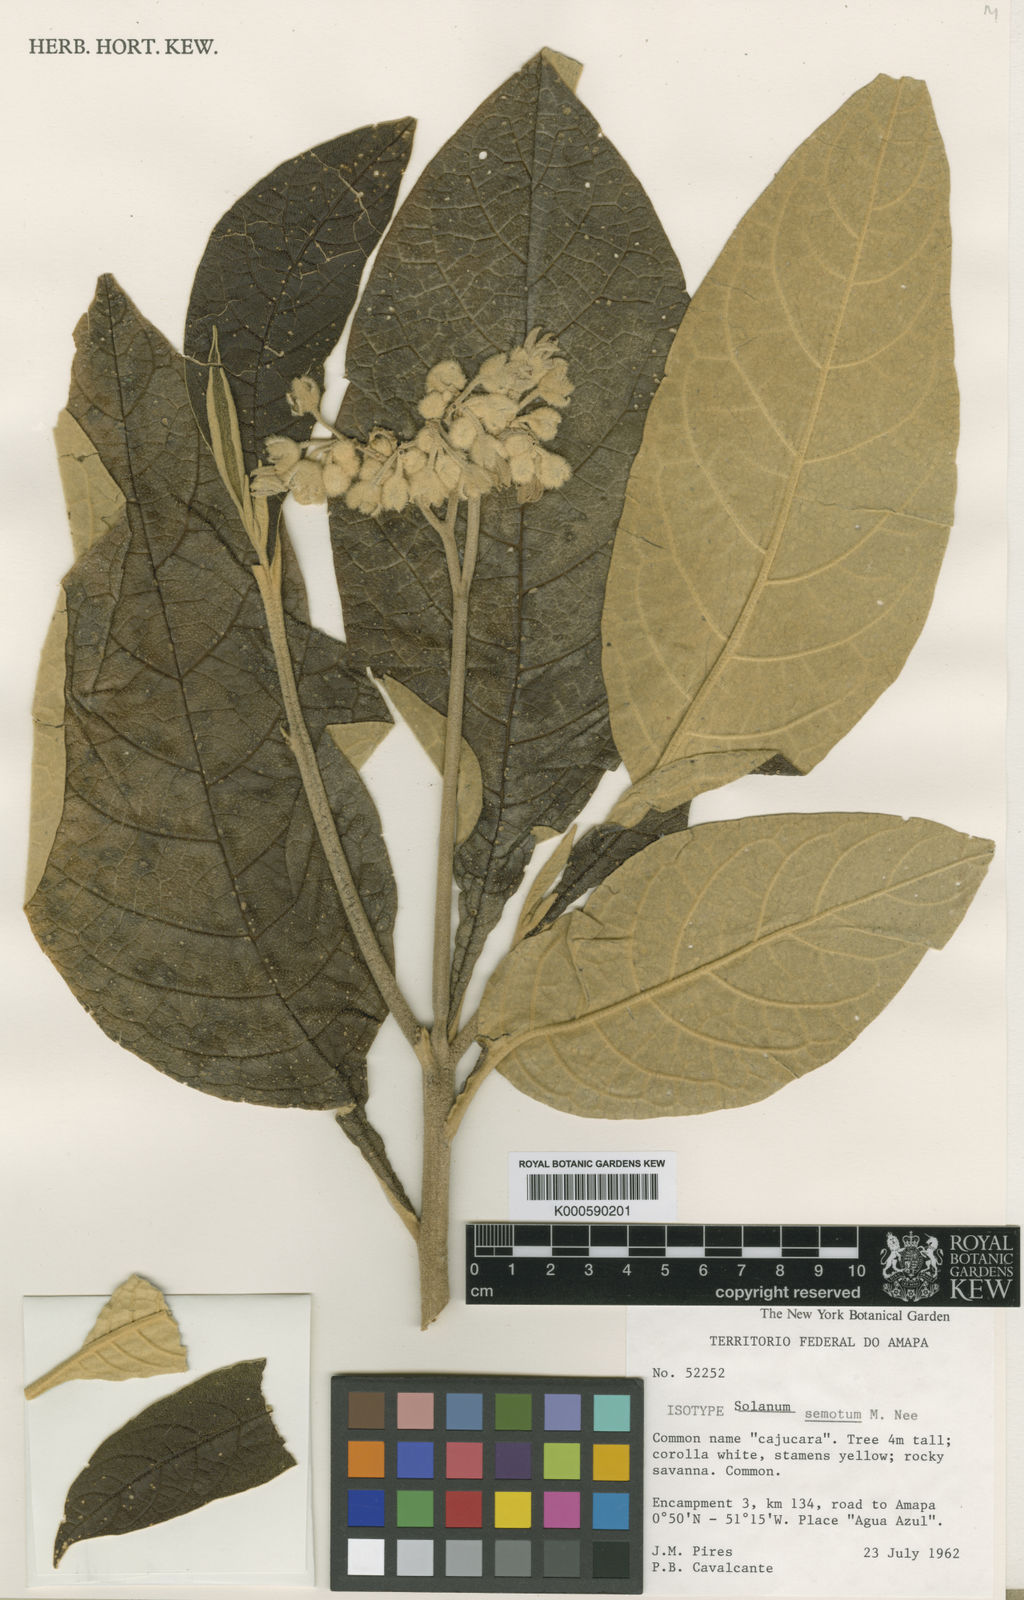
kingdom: Plantae
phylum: Tracheophyta
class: Magnoliopsida
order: Solanales
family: Solanaceae
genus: Solanum
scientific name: Solanum semotum
